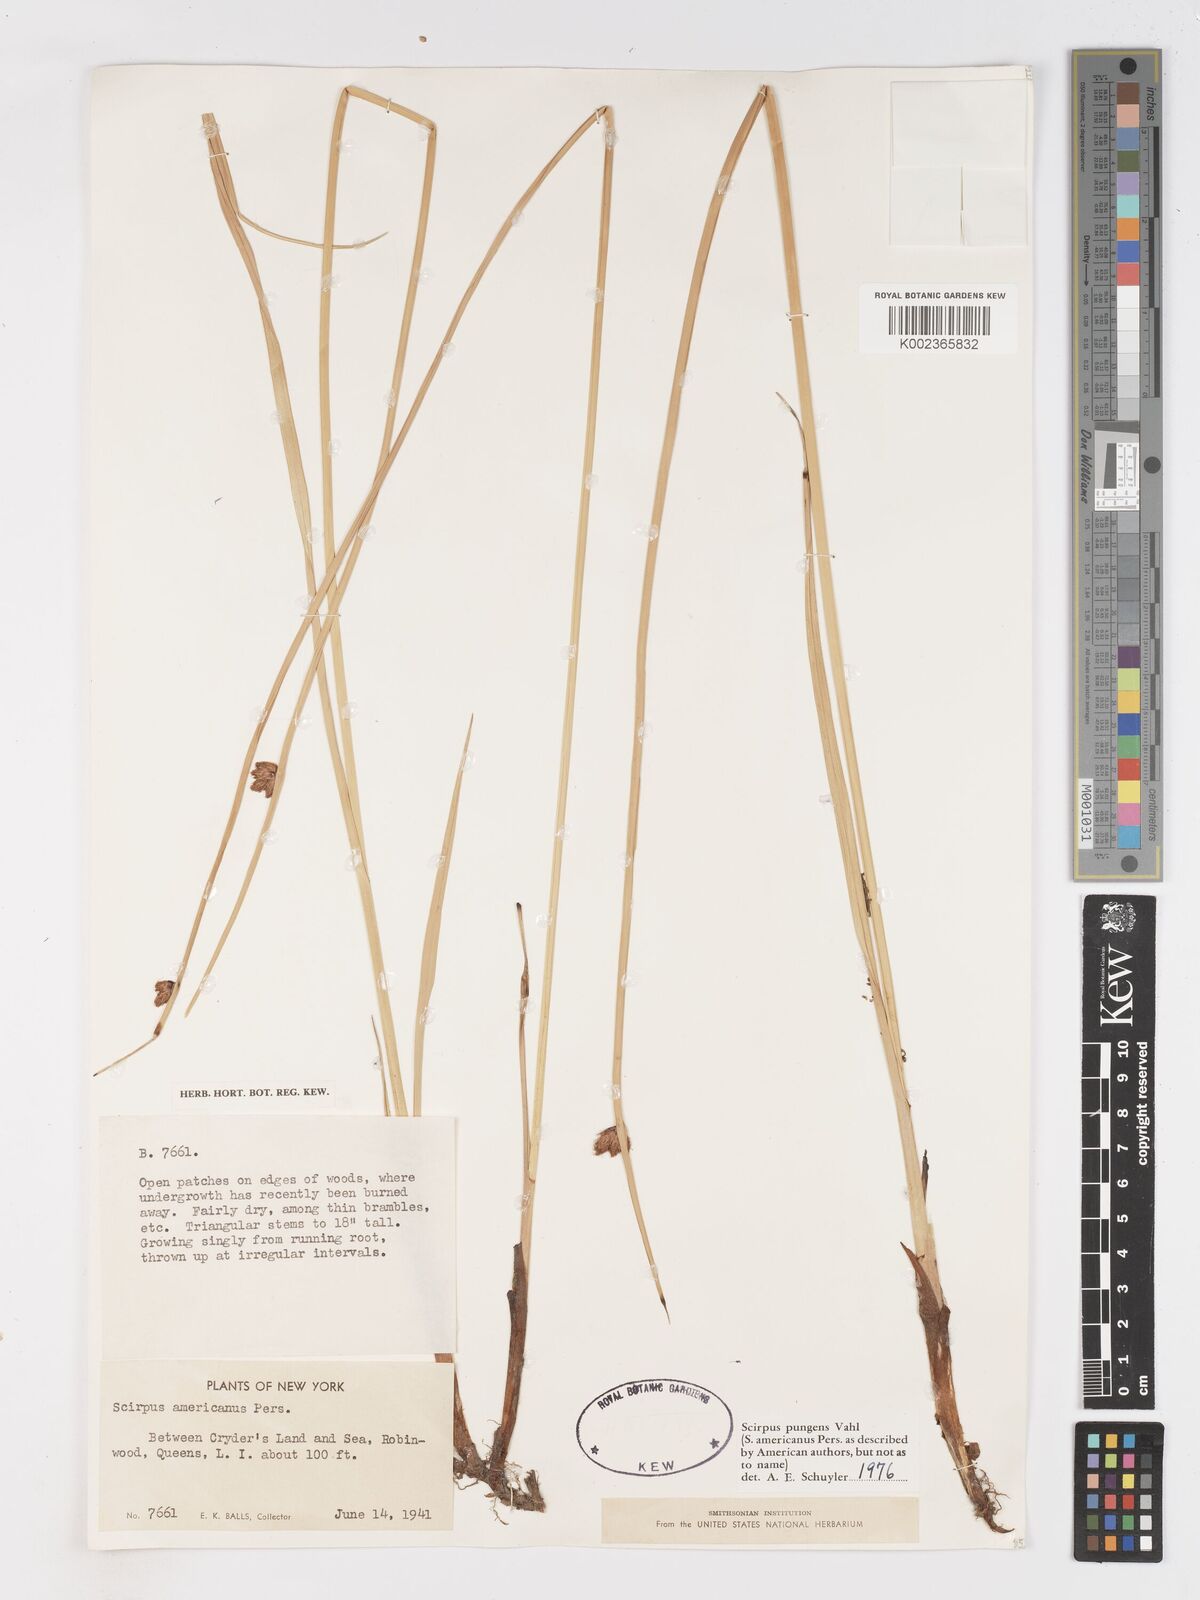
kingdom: Plantae
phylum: Tracheophyta
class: Liliopsida
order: Poales
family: Cyperaceae
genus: Schoenoplectus
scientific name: Schoenoplectus pungens
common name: Sharp club-rush
